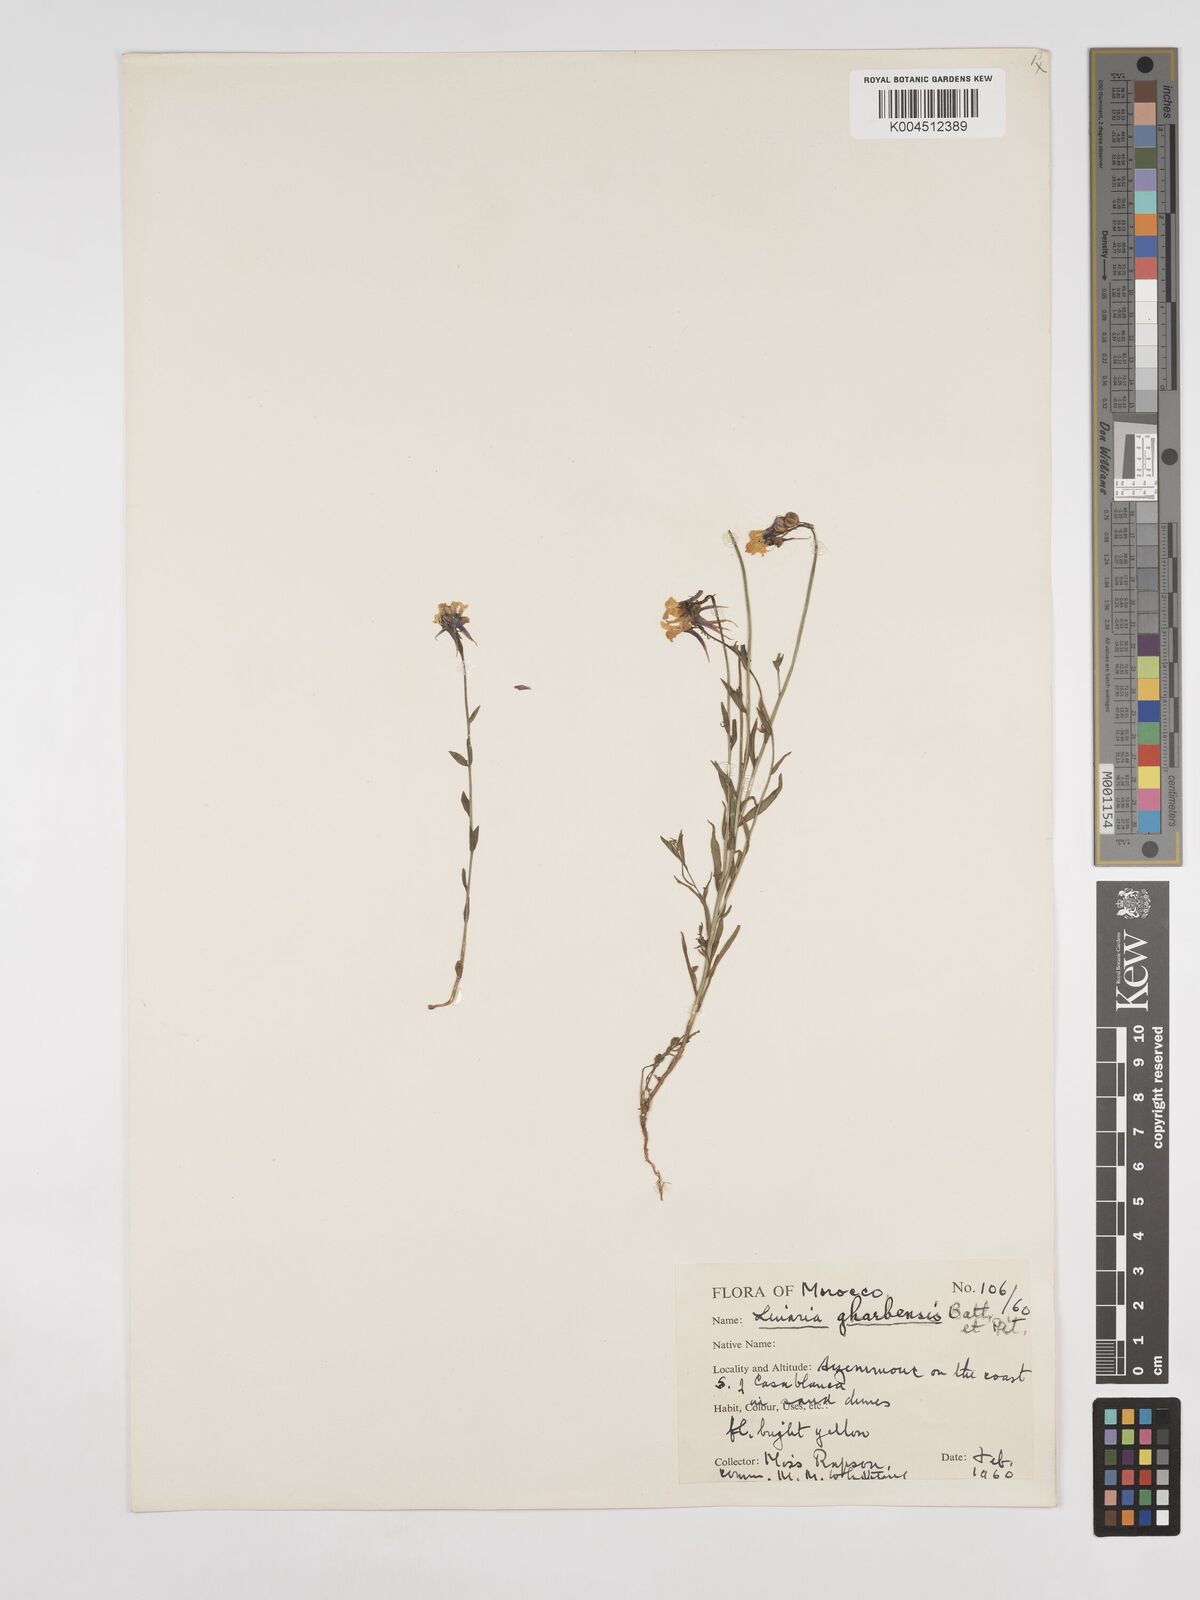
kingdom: Plantae
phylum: Tracheophyta
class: Magnoliopsida
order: Lamiales
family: Plantaginaceae
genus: Linaria
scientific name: Linaria gharbensis
